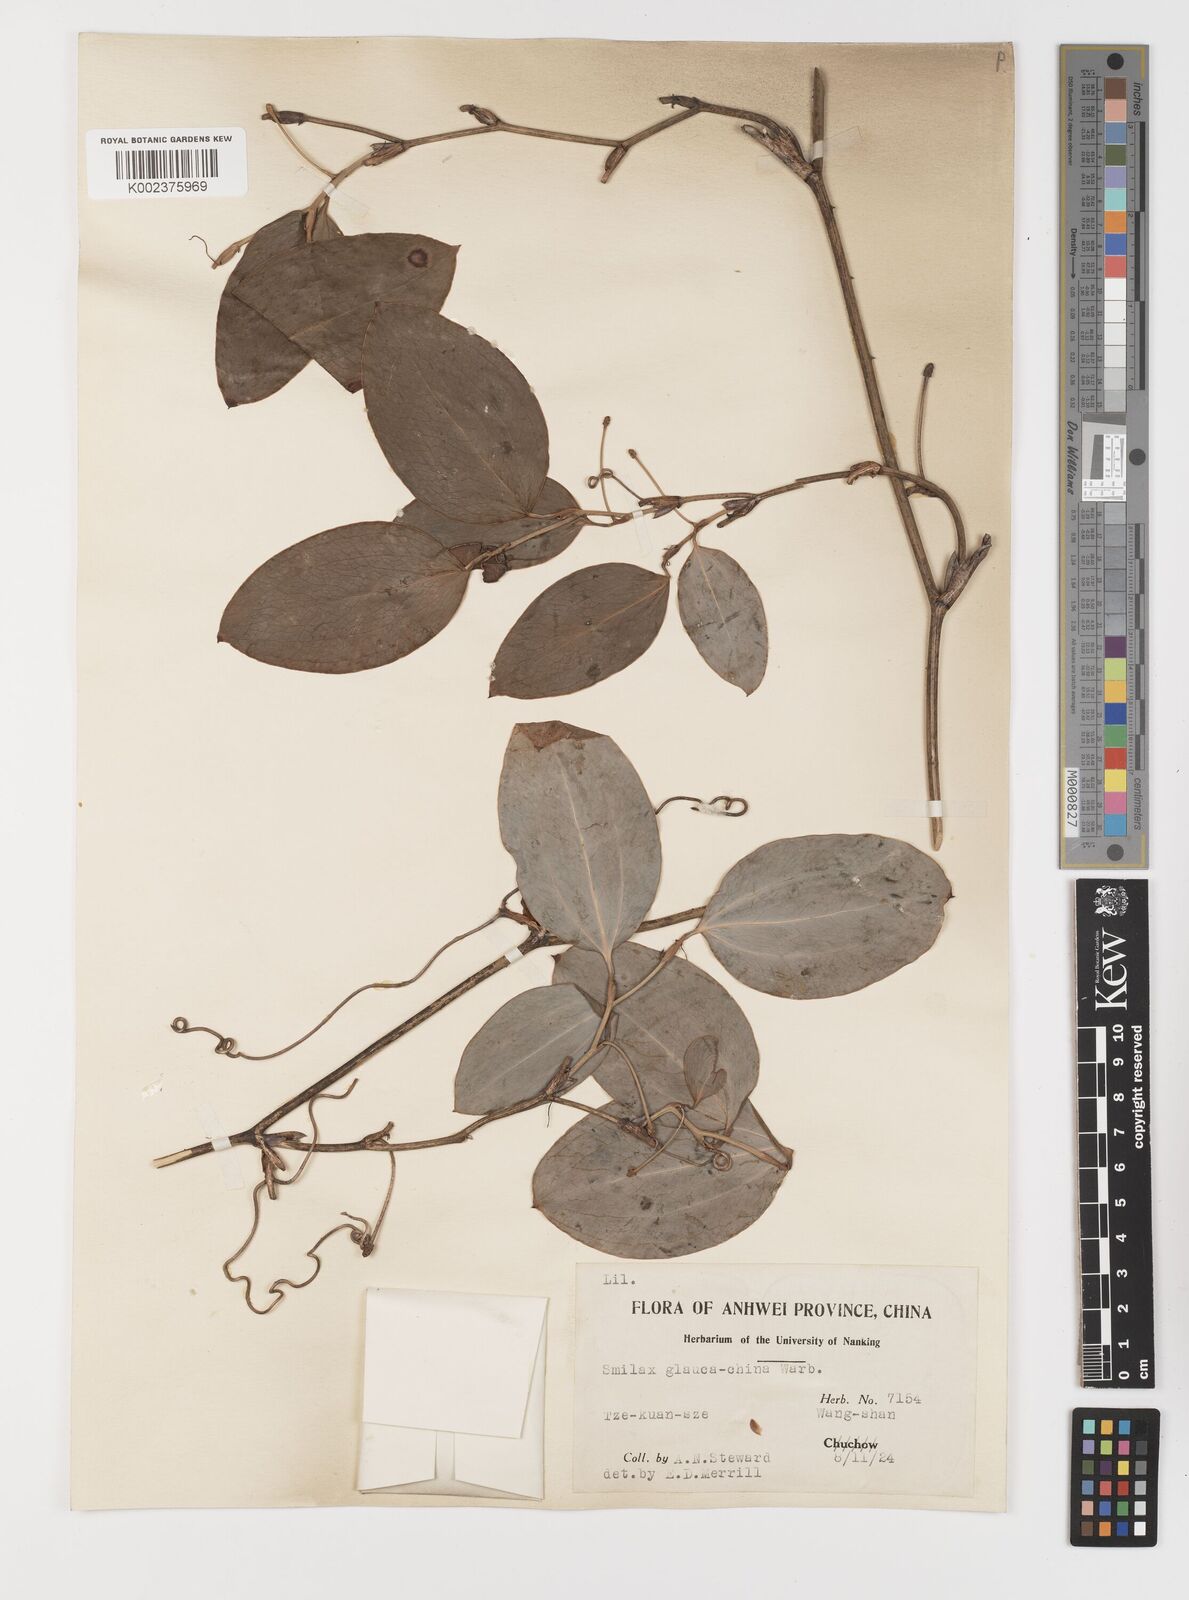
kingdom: Plantae
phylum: Tracheophyta
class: Liliopsida
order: Liliales
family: Smilacaceae
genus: Smilax
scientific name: Smilax glaucochina
